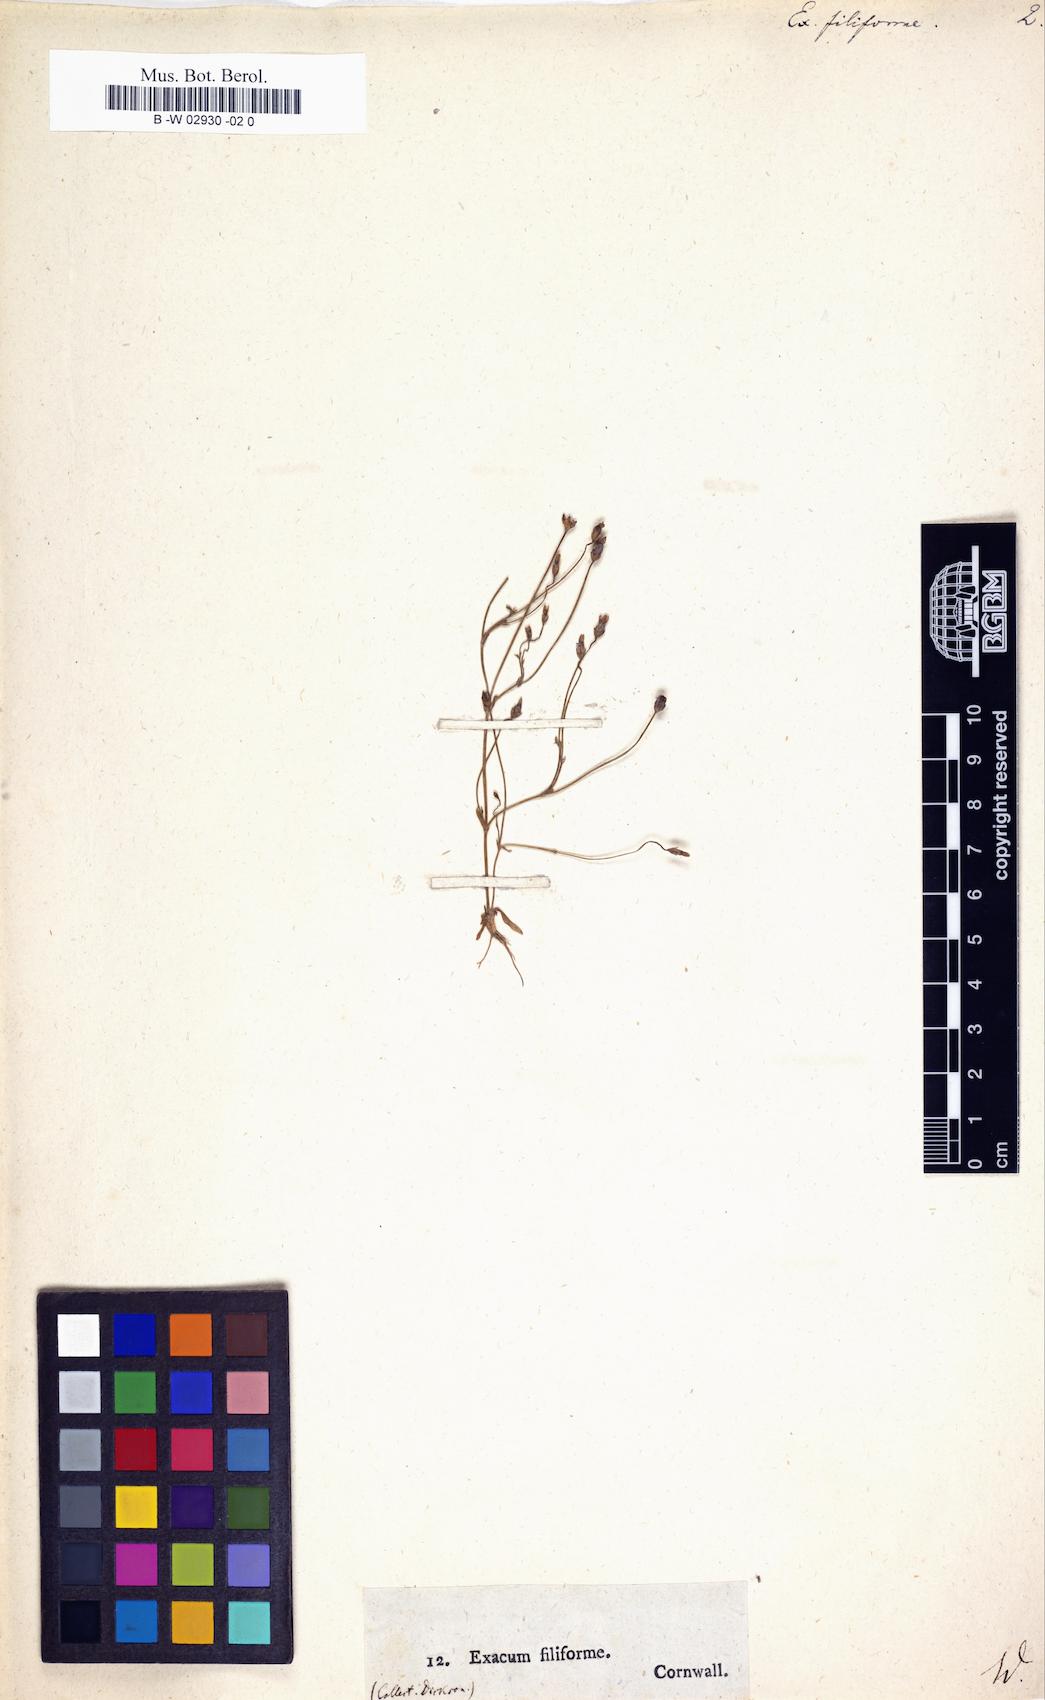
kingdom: Plantae
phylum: Tracheophyta
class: Magnoliopsida
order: Gentianales
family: Gentianaceae
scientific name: Gentianaceae
